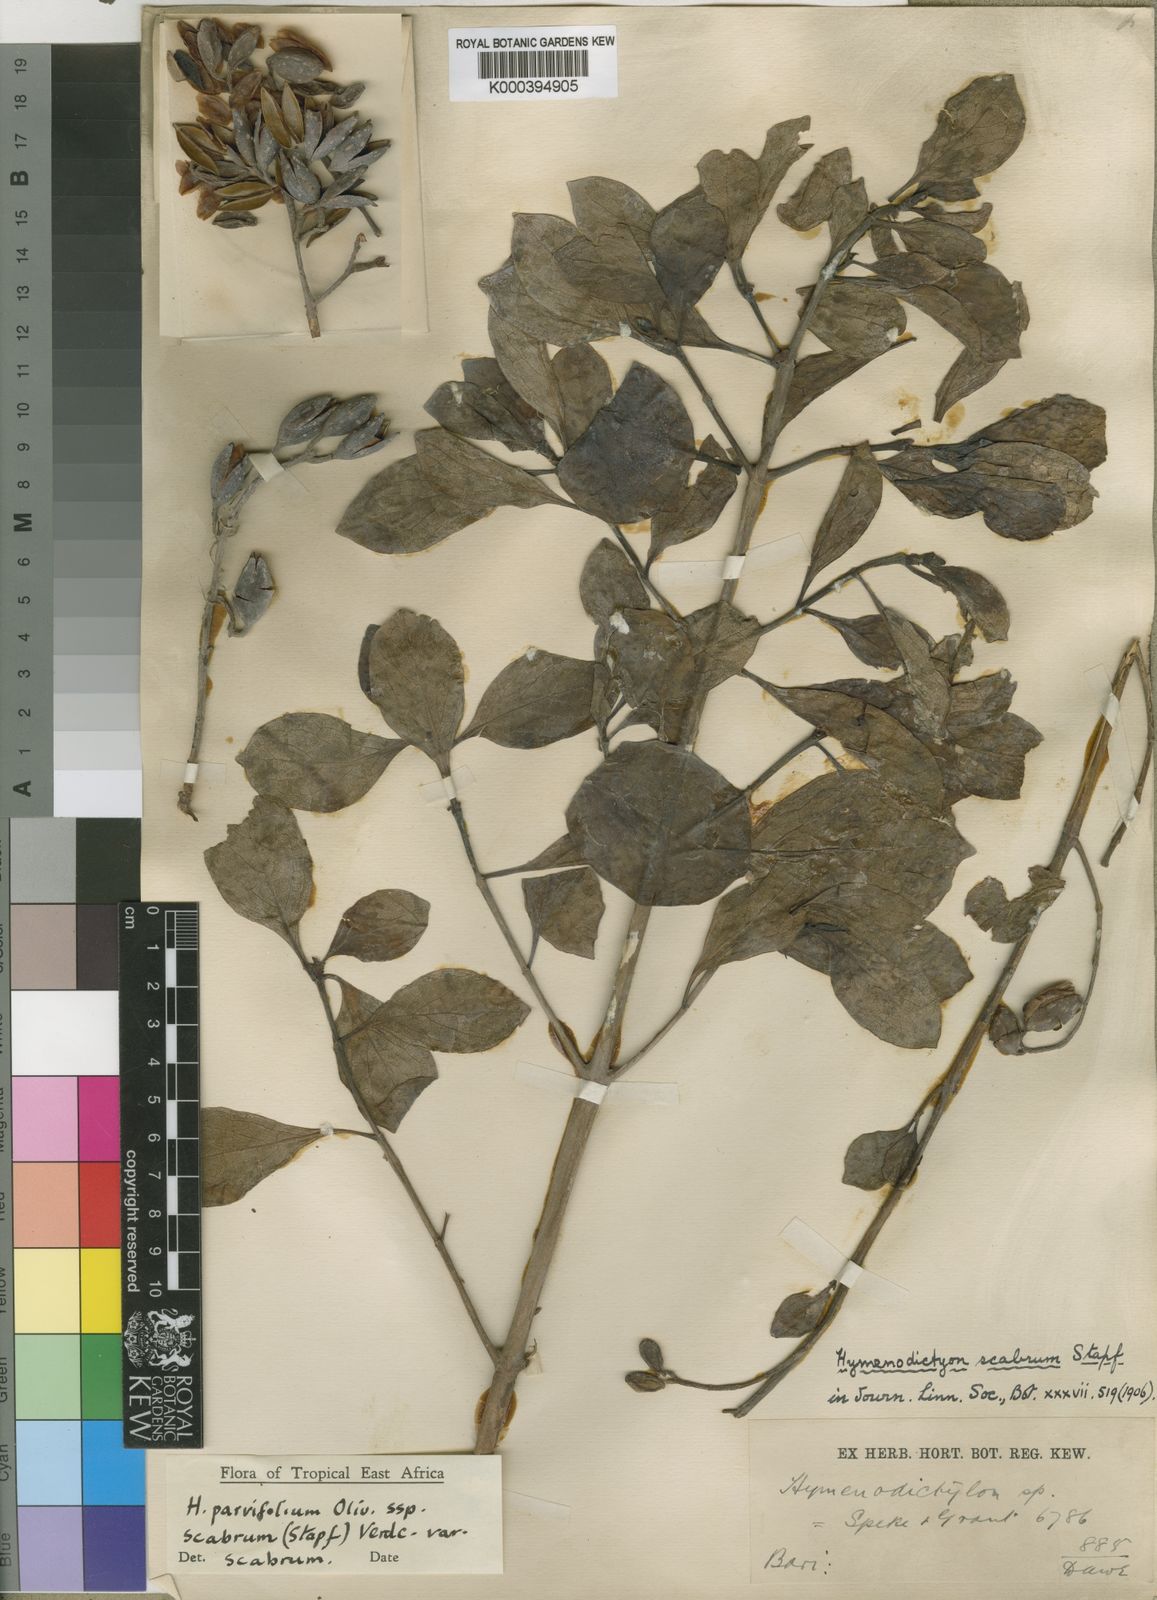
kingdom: Plantae
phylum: Tracheophyta
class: Magnoliopsida
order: Gentianales
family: Rubiaceae
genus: Hymenodictyon
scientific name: Hymenodictyon scabrum
